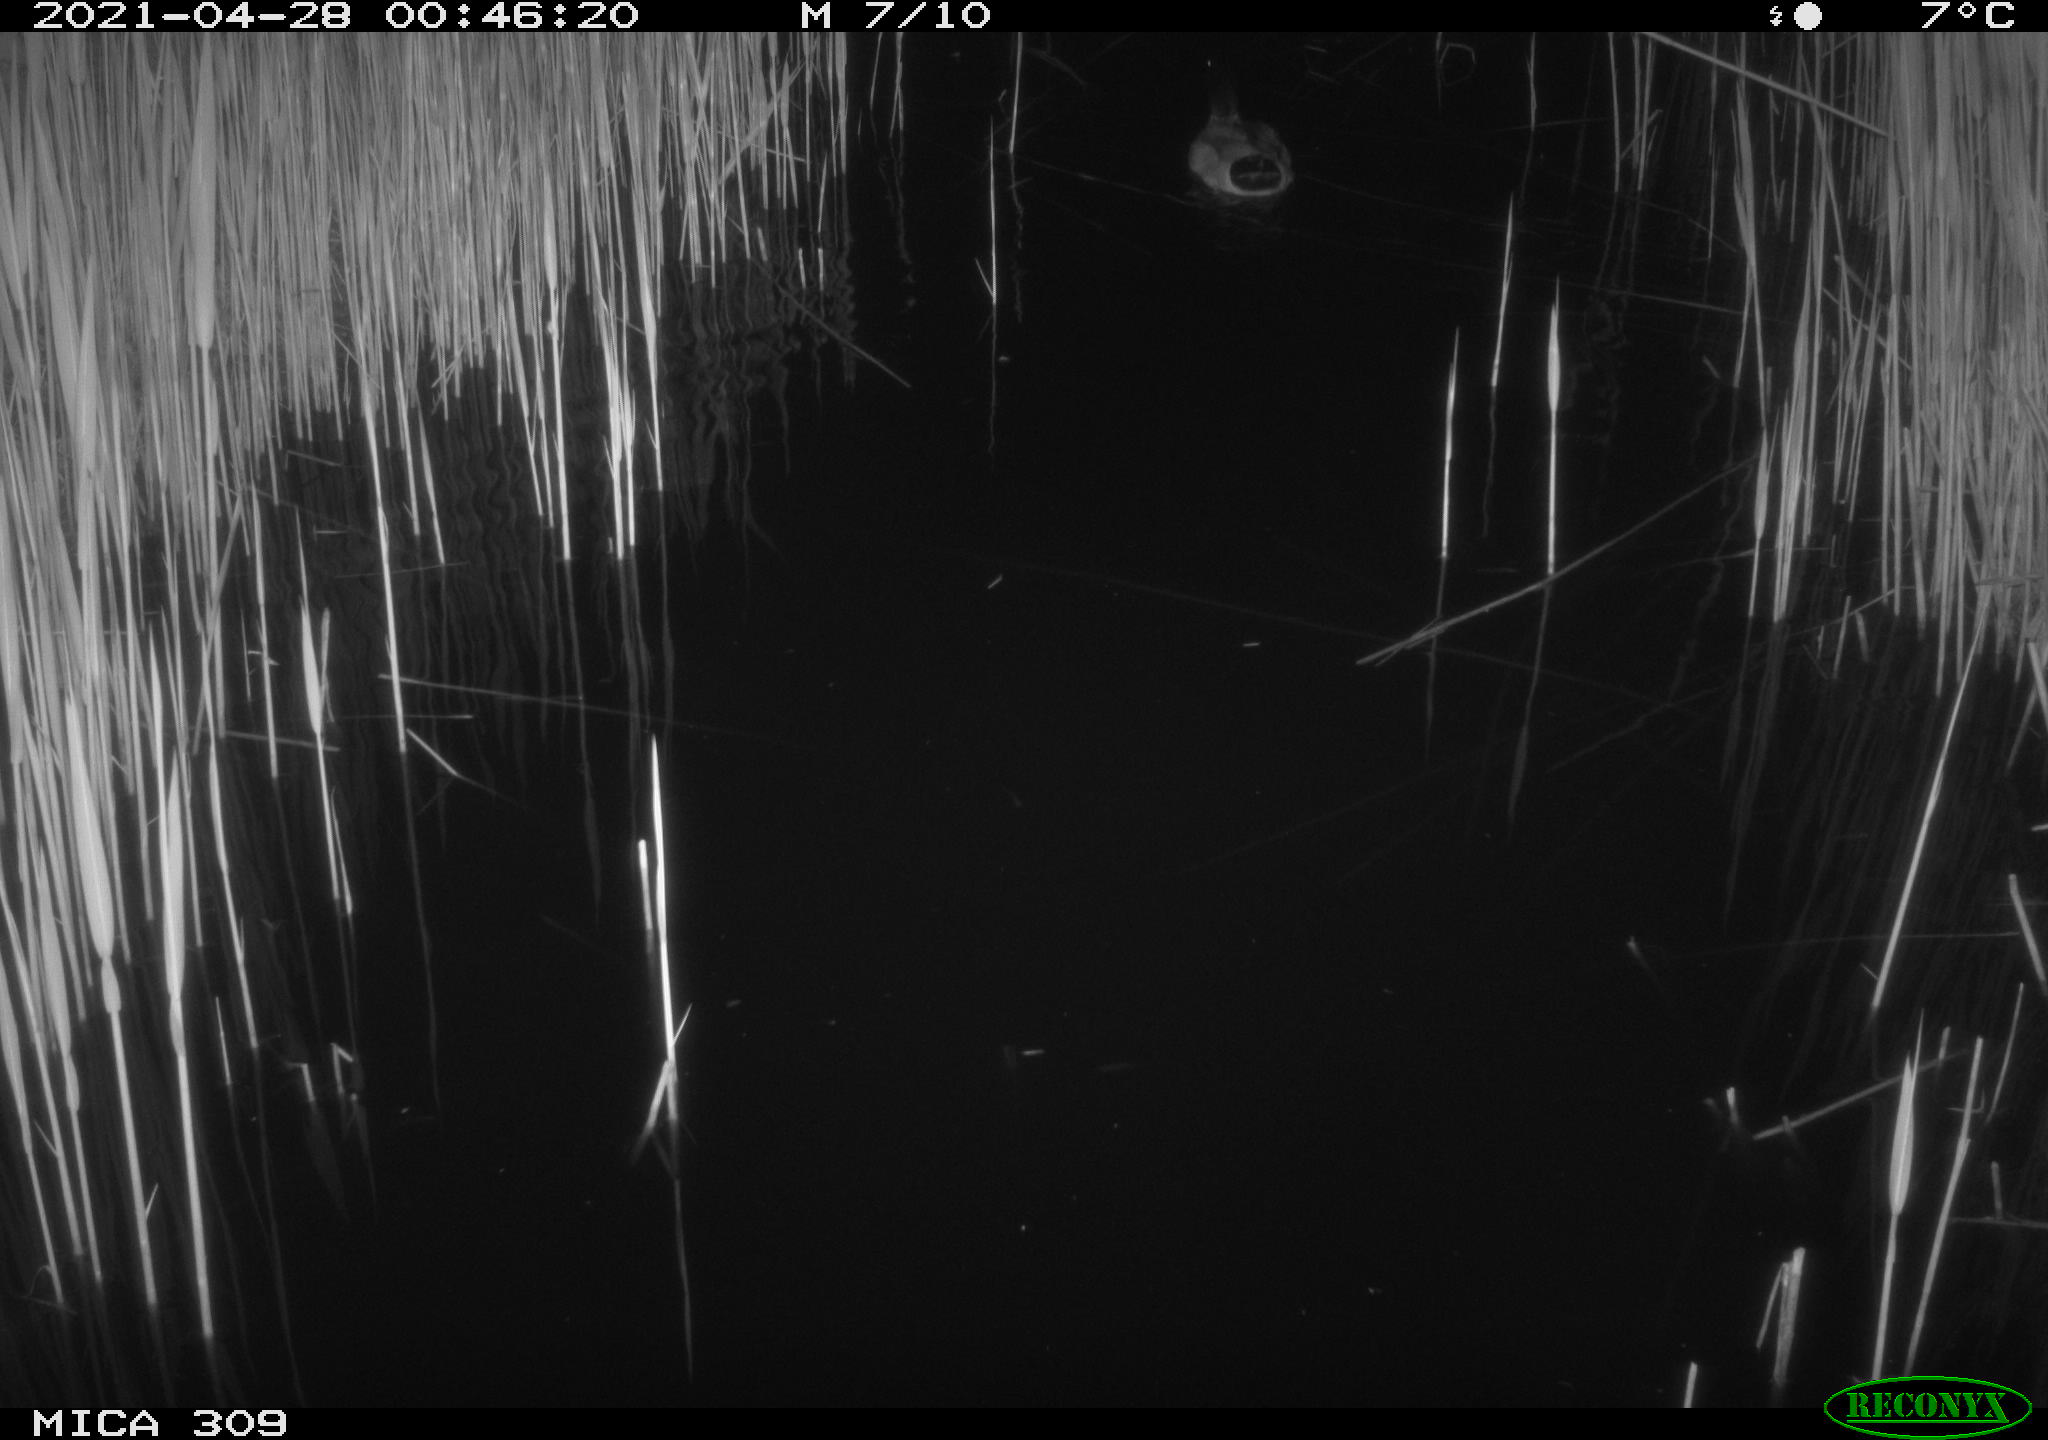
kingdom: Animalia
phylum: Chordata
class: Aves
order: Anseriformes
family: Anatidae
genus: Anas
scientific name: Anas platyrhynchos
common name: Mallard
